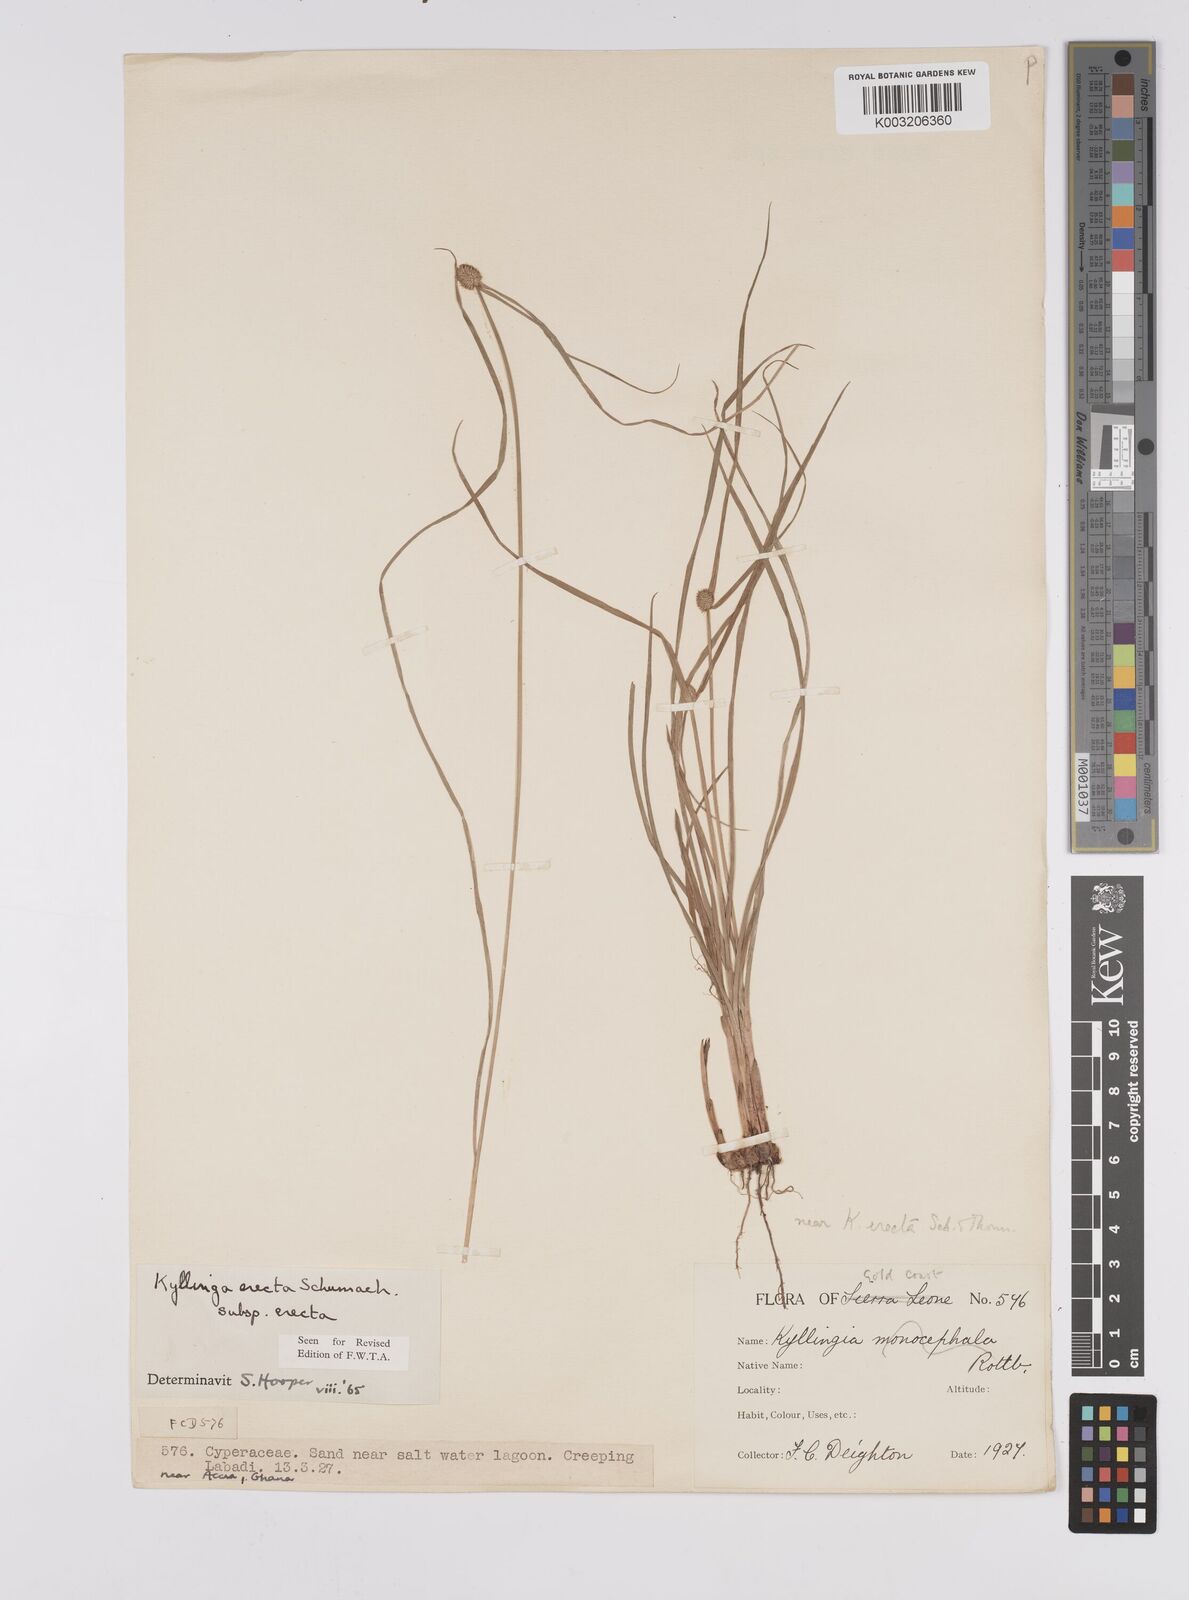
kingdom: Plantae
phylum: Tracheophyta
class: Liliopsida
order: Poales
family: Cyperaceae
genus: Cyperus
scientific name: Cyperus erectus
